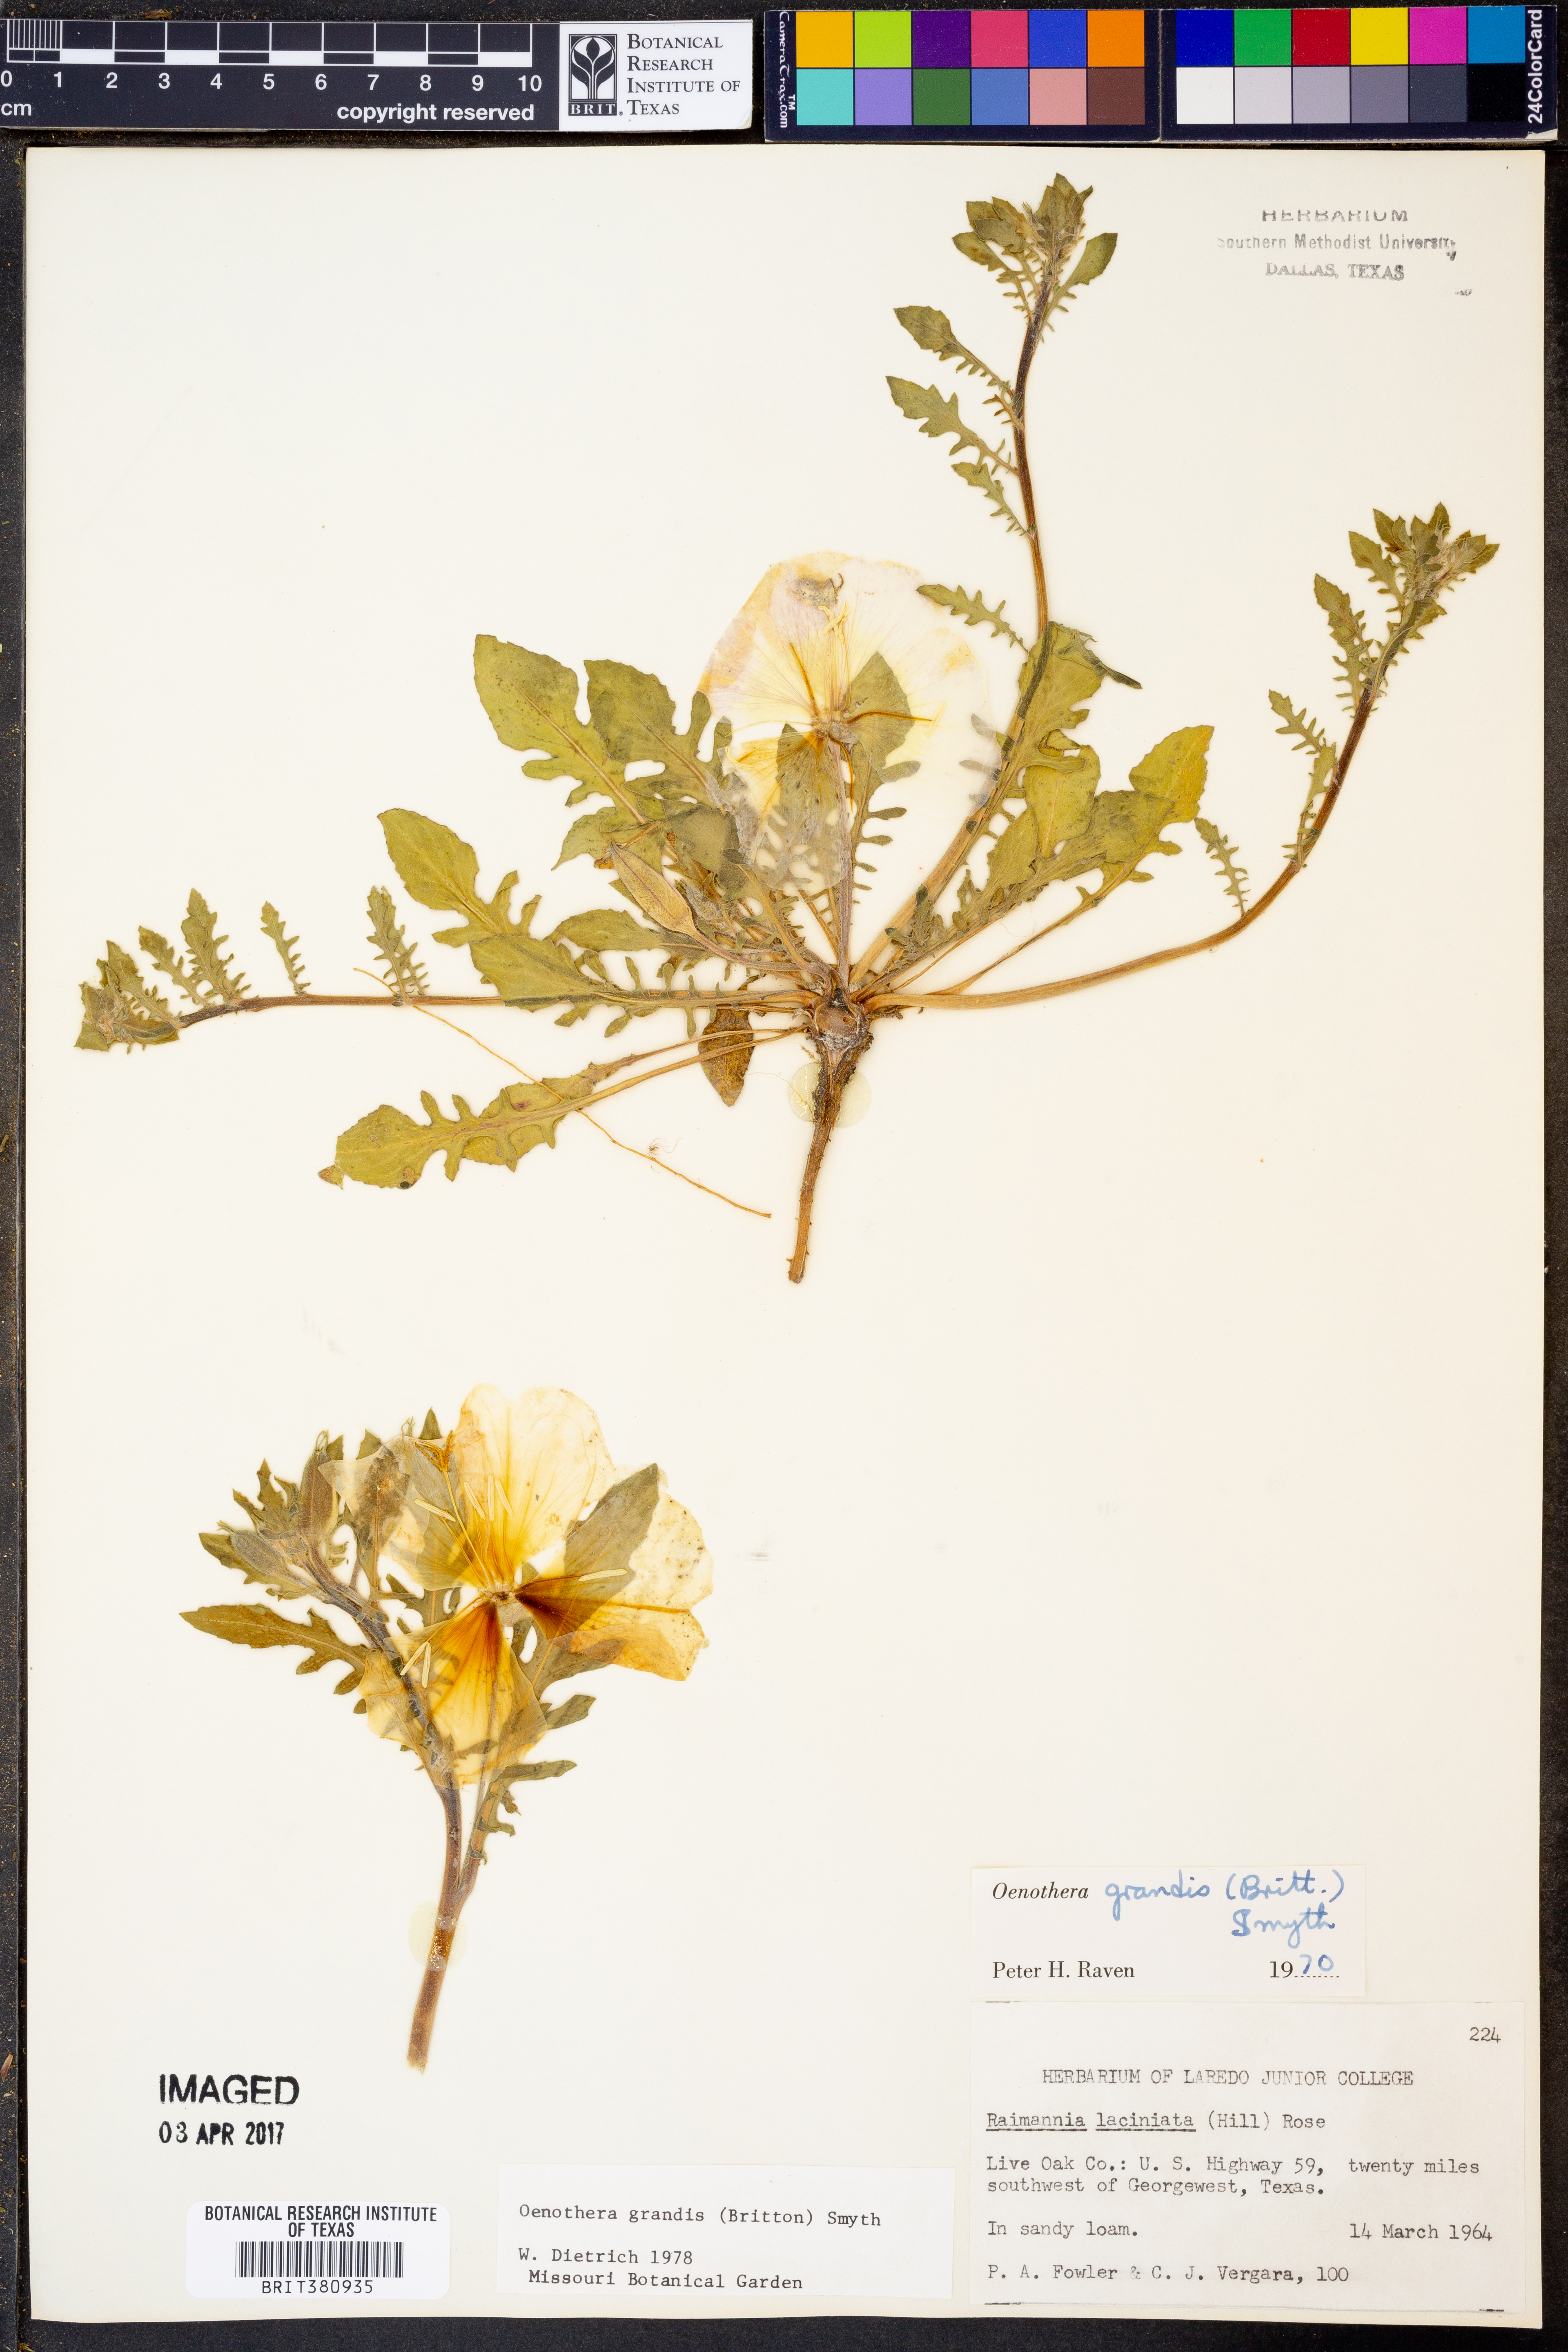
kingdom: Plantae
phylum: Tracheophyta
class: Magnoliopsida
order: Myrtales
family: Onagraceae
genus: Oenothera
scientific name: Oenothera grandis
